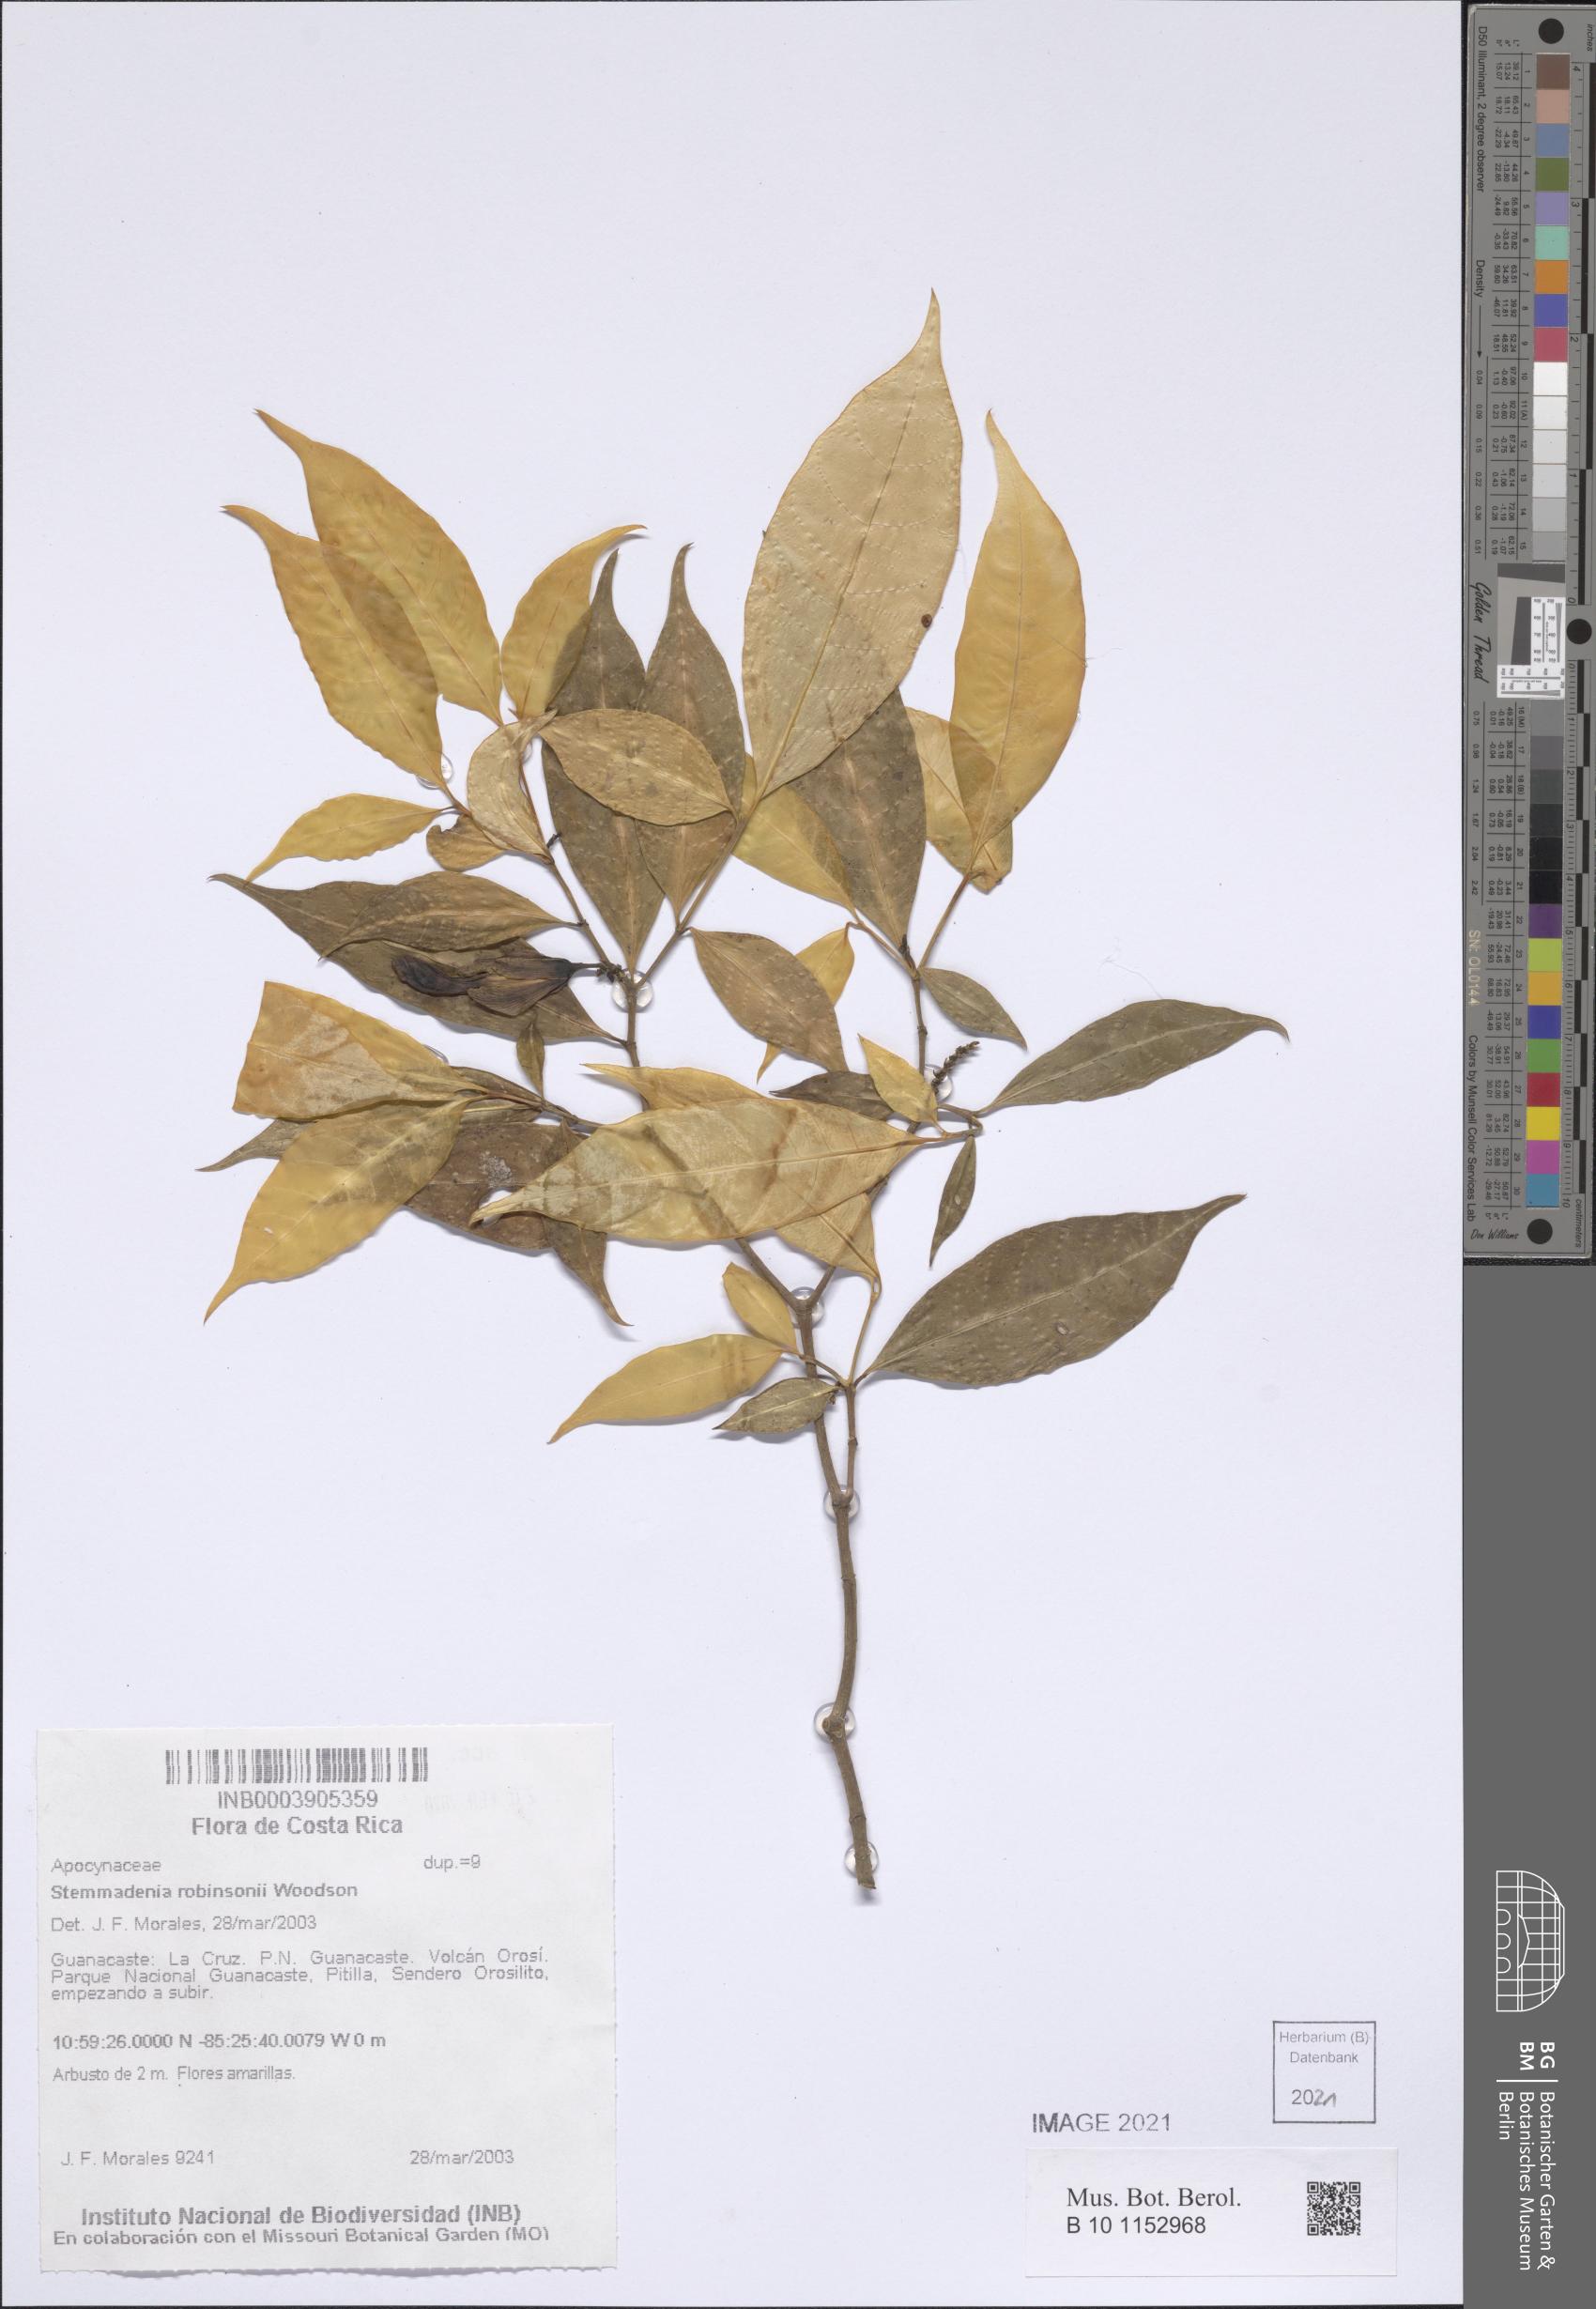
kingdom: Plantae
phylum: Tracheophyta
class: Magnoliopsida
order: Gentianales
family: Apocynaceae
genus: Tabernaemontana
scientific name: Tabernaemontana robinsonii
